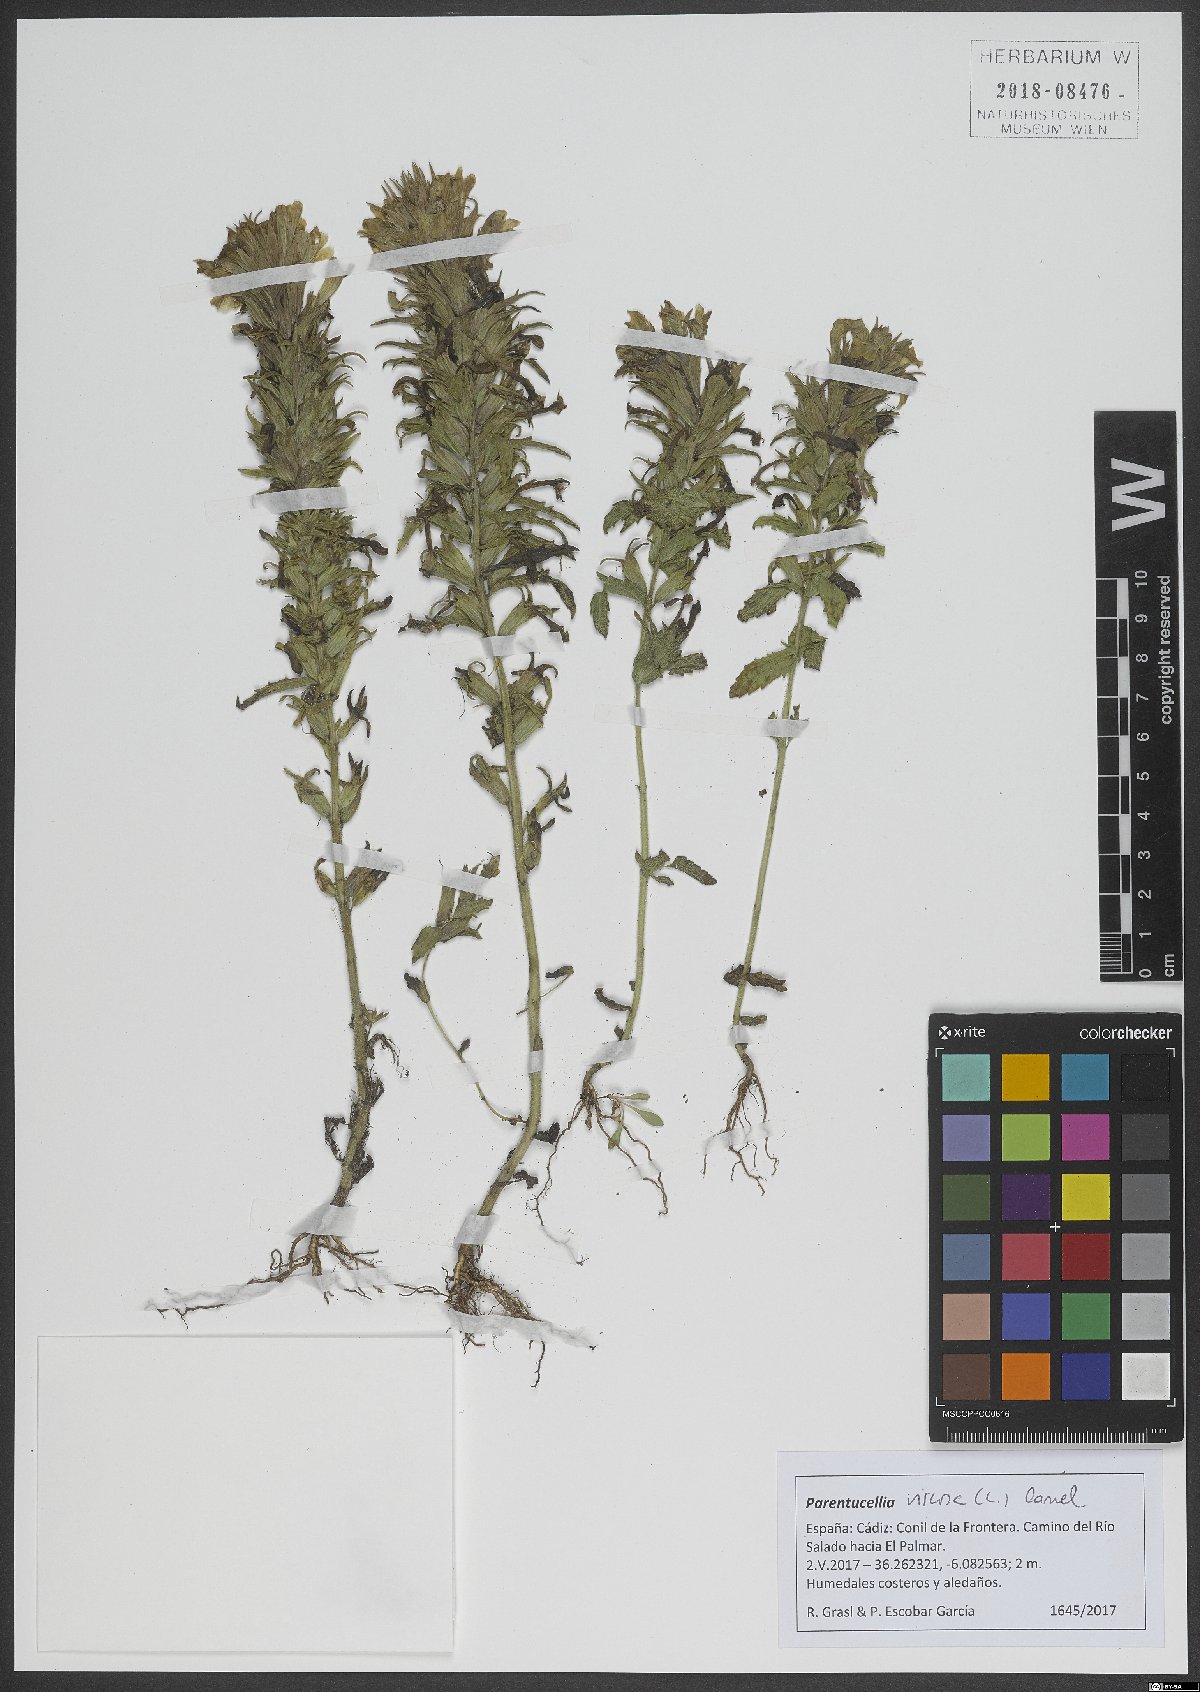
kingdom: Plantae
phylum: Tracheophyta
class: Magnoliopsida
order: Lamiales
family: Orobanchaceae
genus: Bellardia
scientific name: Bellardia viscosa
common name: Sticky parentucellia
